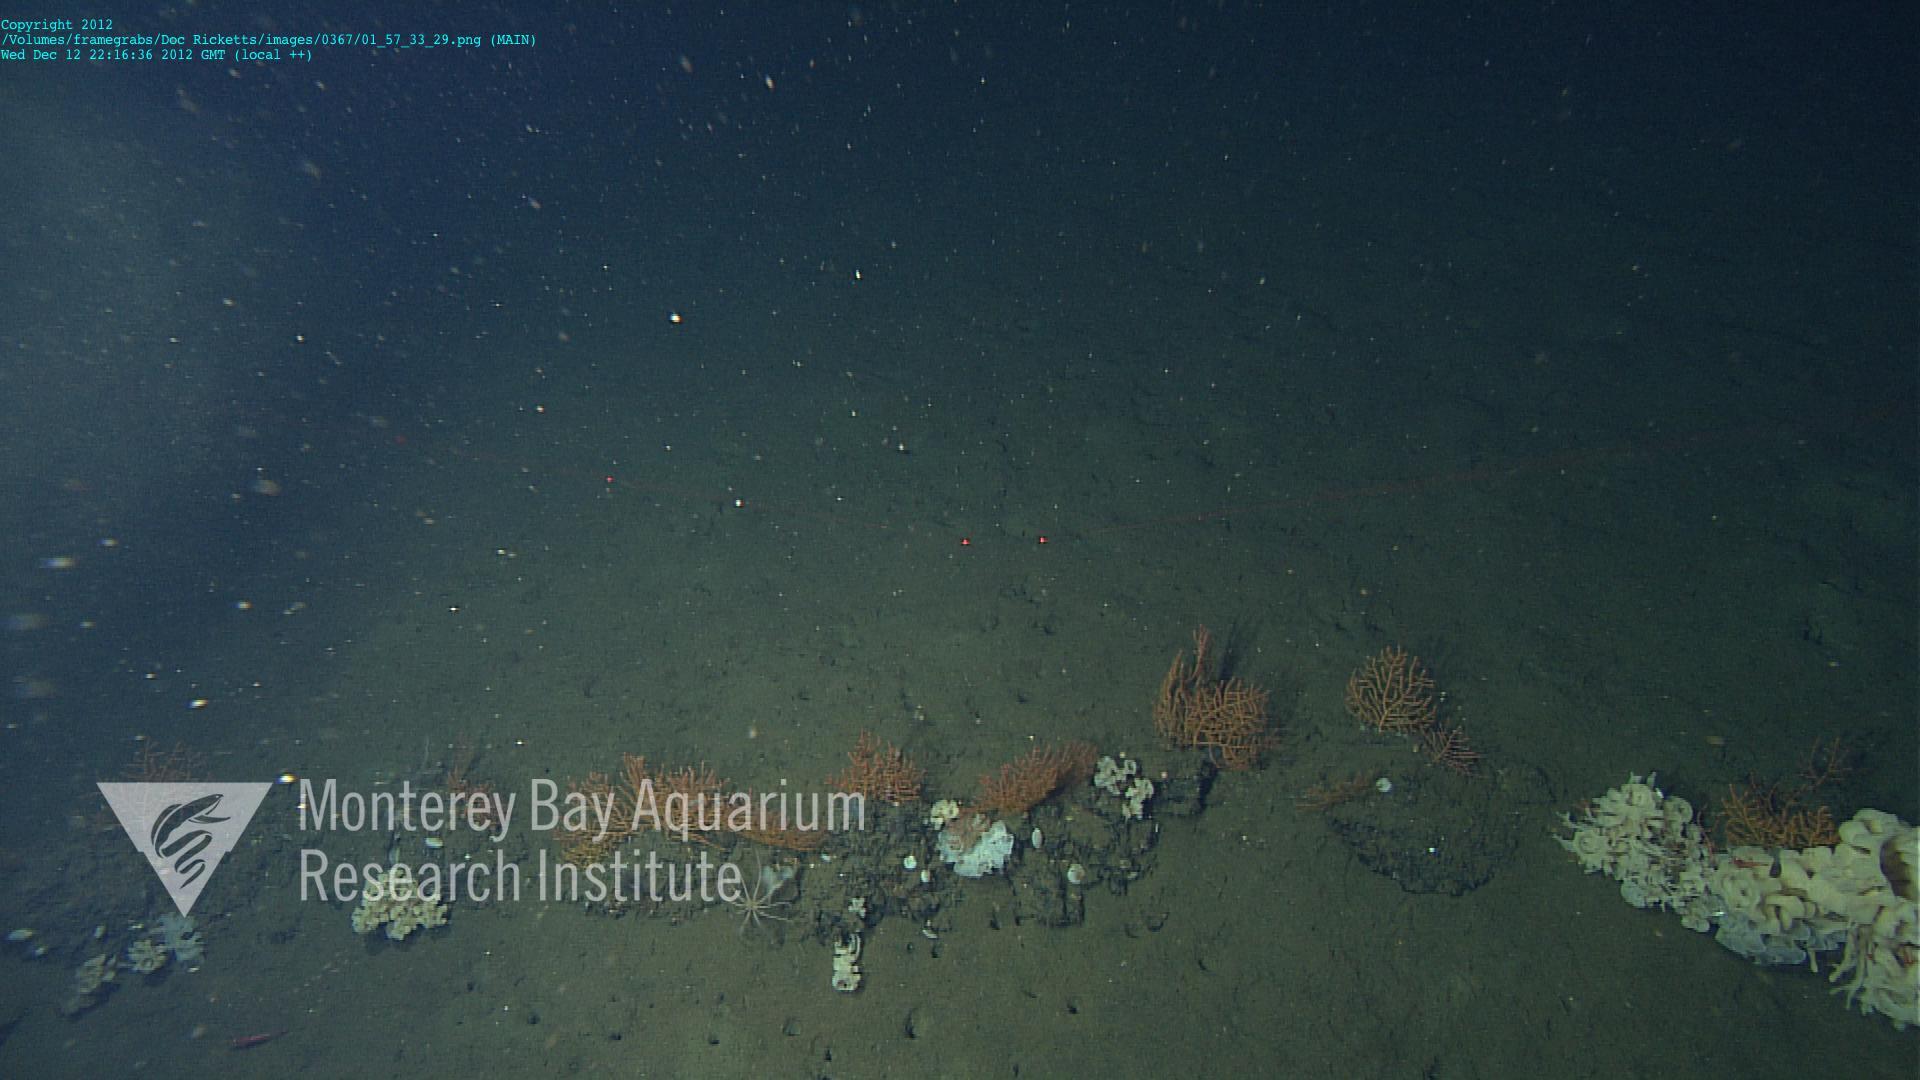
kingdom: Animalia
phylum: Cnidaria
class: Anthozoa
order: Malacalcyonacea
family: Plexauridae
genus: Swiftia
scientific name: Swiftia
